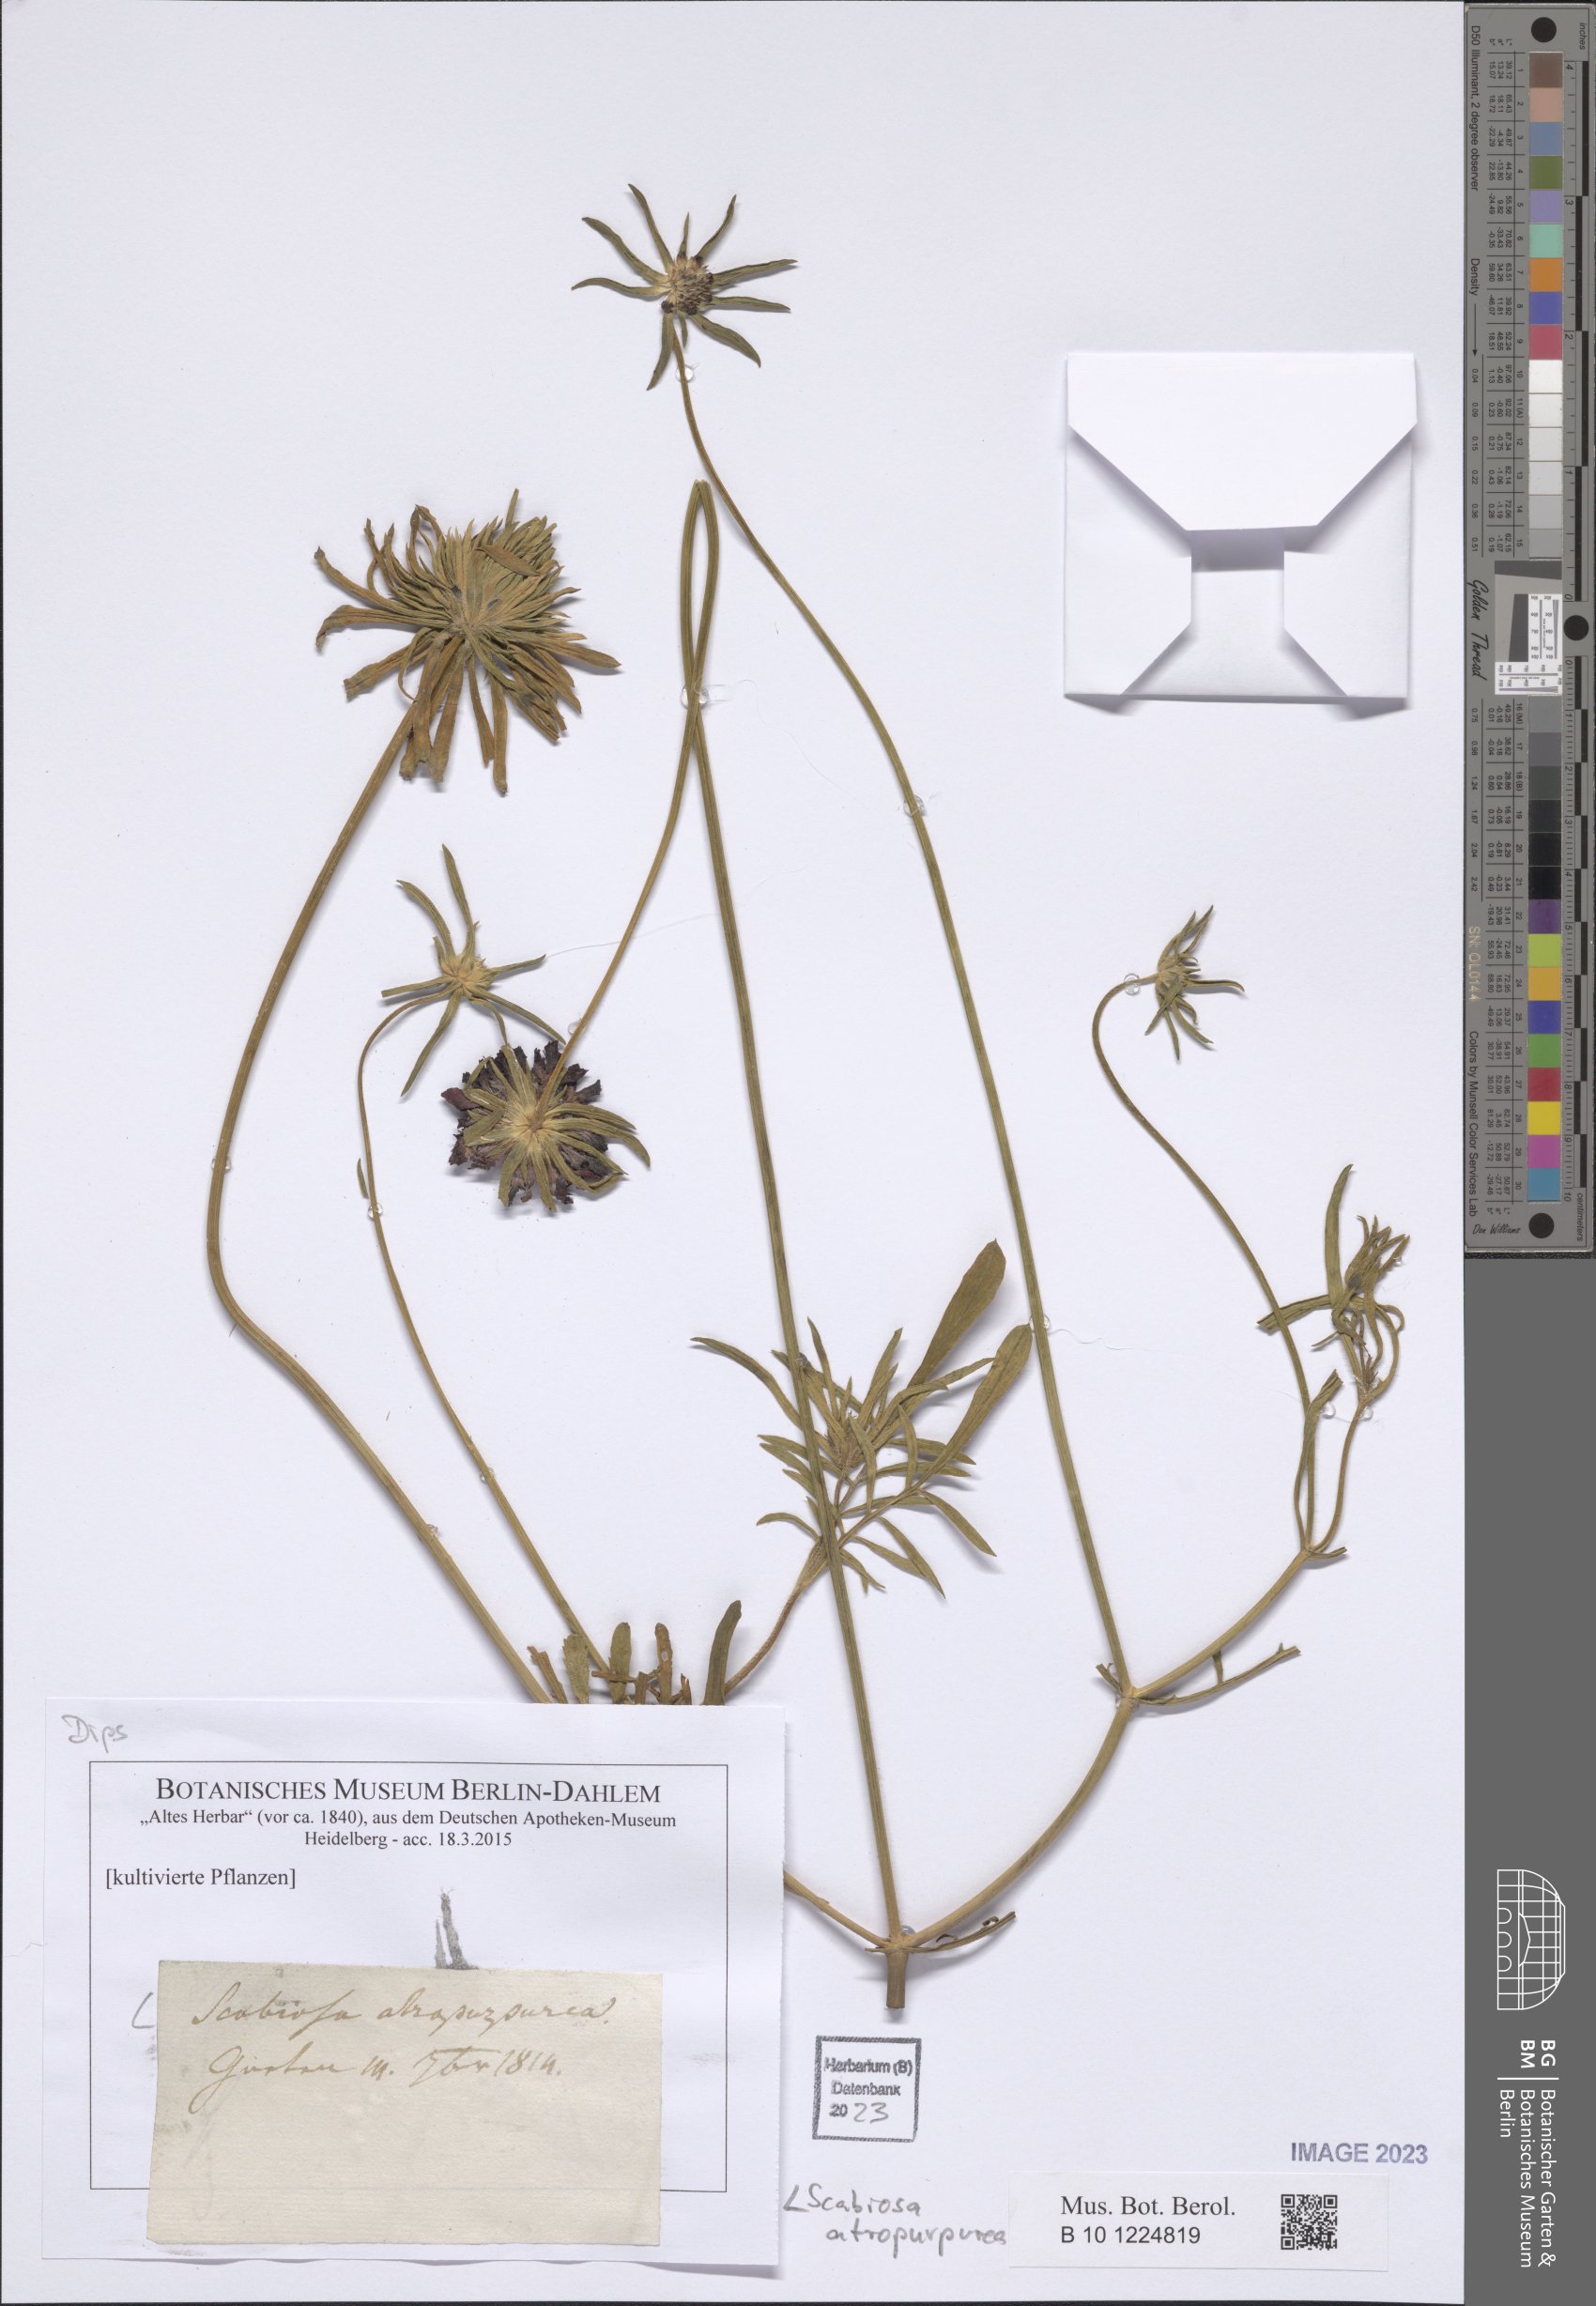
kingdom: Plantae
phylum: Tracheophyta
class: Magnoliopsida
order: Dipsacales
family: Caprifoliaceae
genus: Sixalix
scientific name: Sixalix atropurpurea
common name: Sweet scabious
